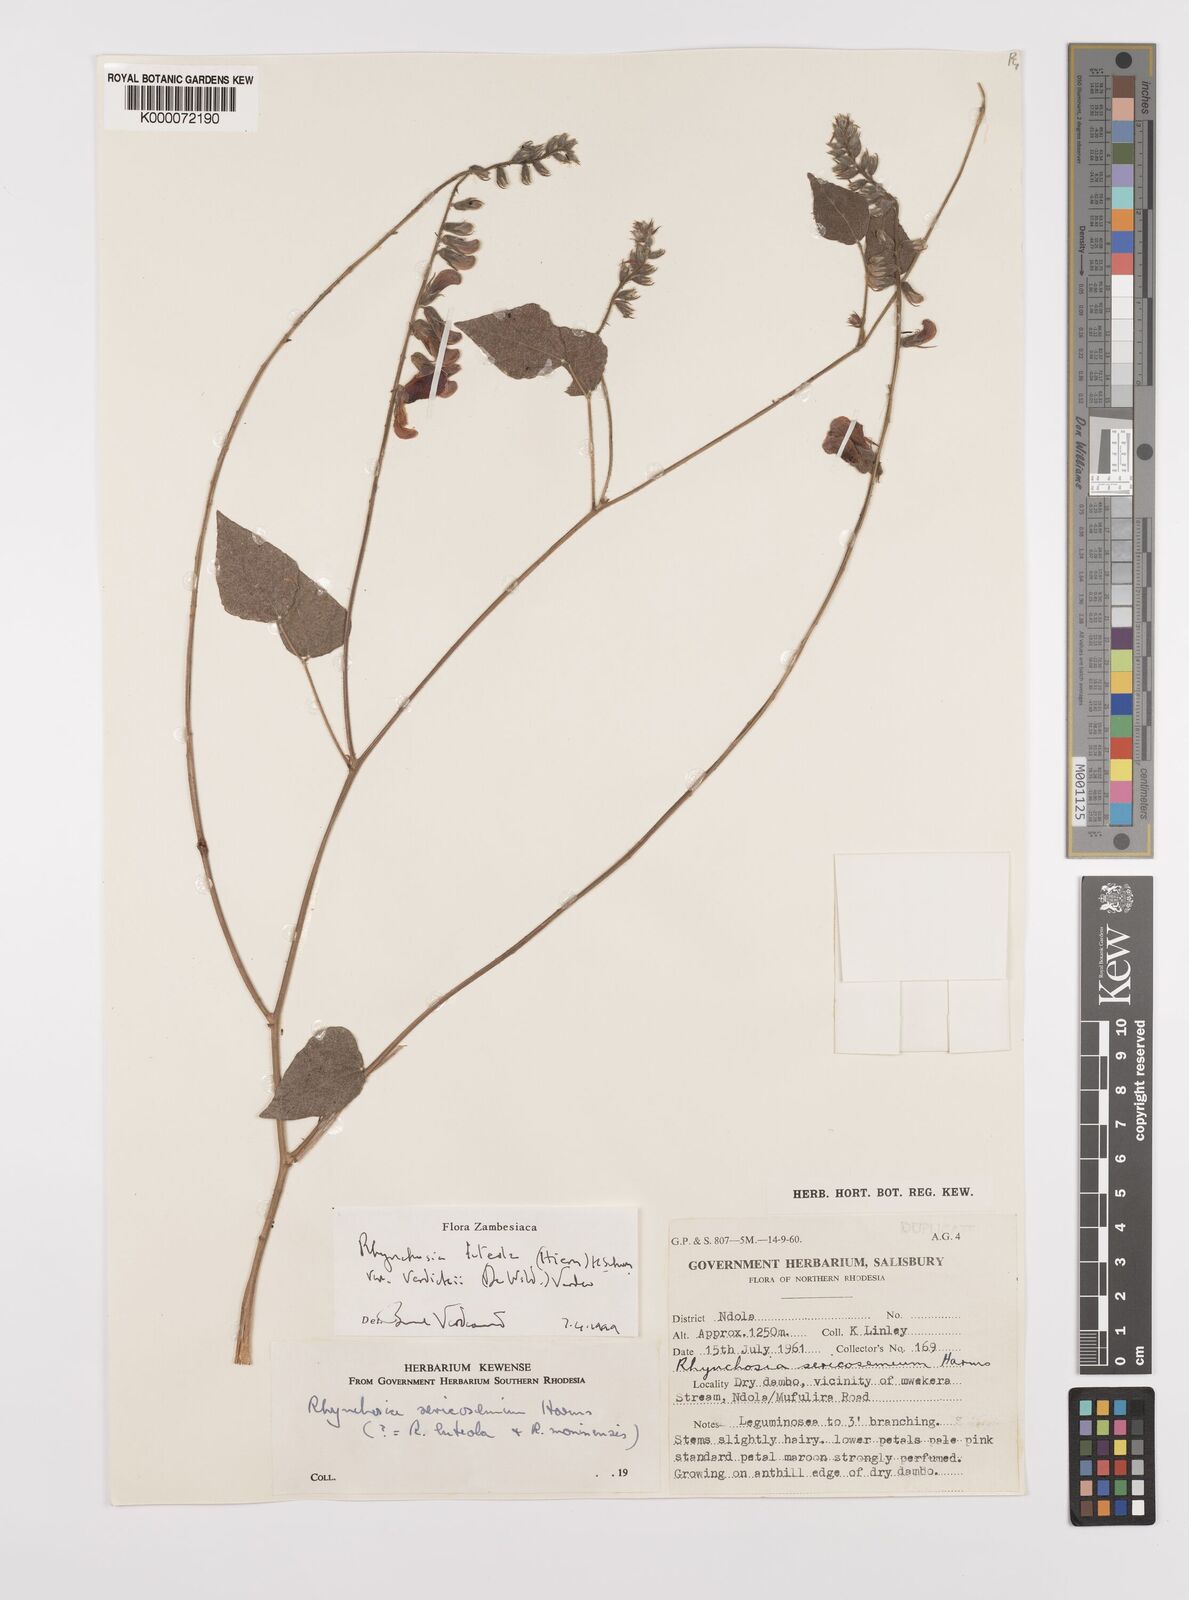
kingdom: Plantae
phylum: Tracheophyta
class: Magnoliopsida
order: Fabales
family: Fabaceae
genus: Rhynchosia
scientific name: Rhynchosia luteola
